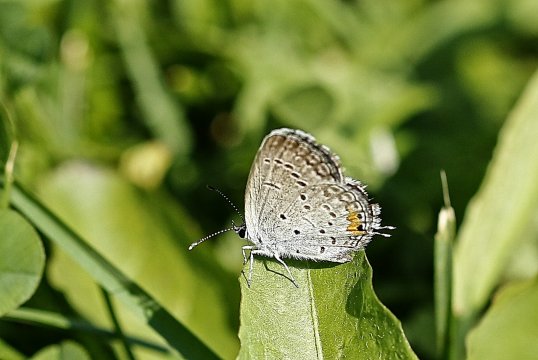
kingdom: Animalia
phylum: Arthropoda
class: Insecta
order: Lepidoptera
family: Lycaenidae
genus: Elkalyce
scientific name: Elkalyce comyntas
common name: Eastern Tailed-Blue
